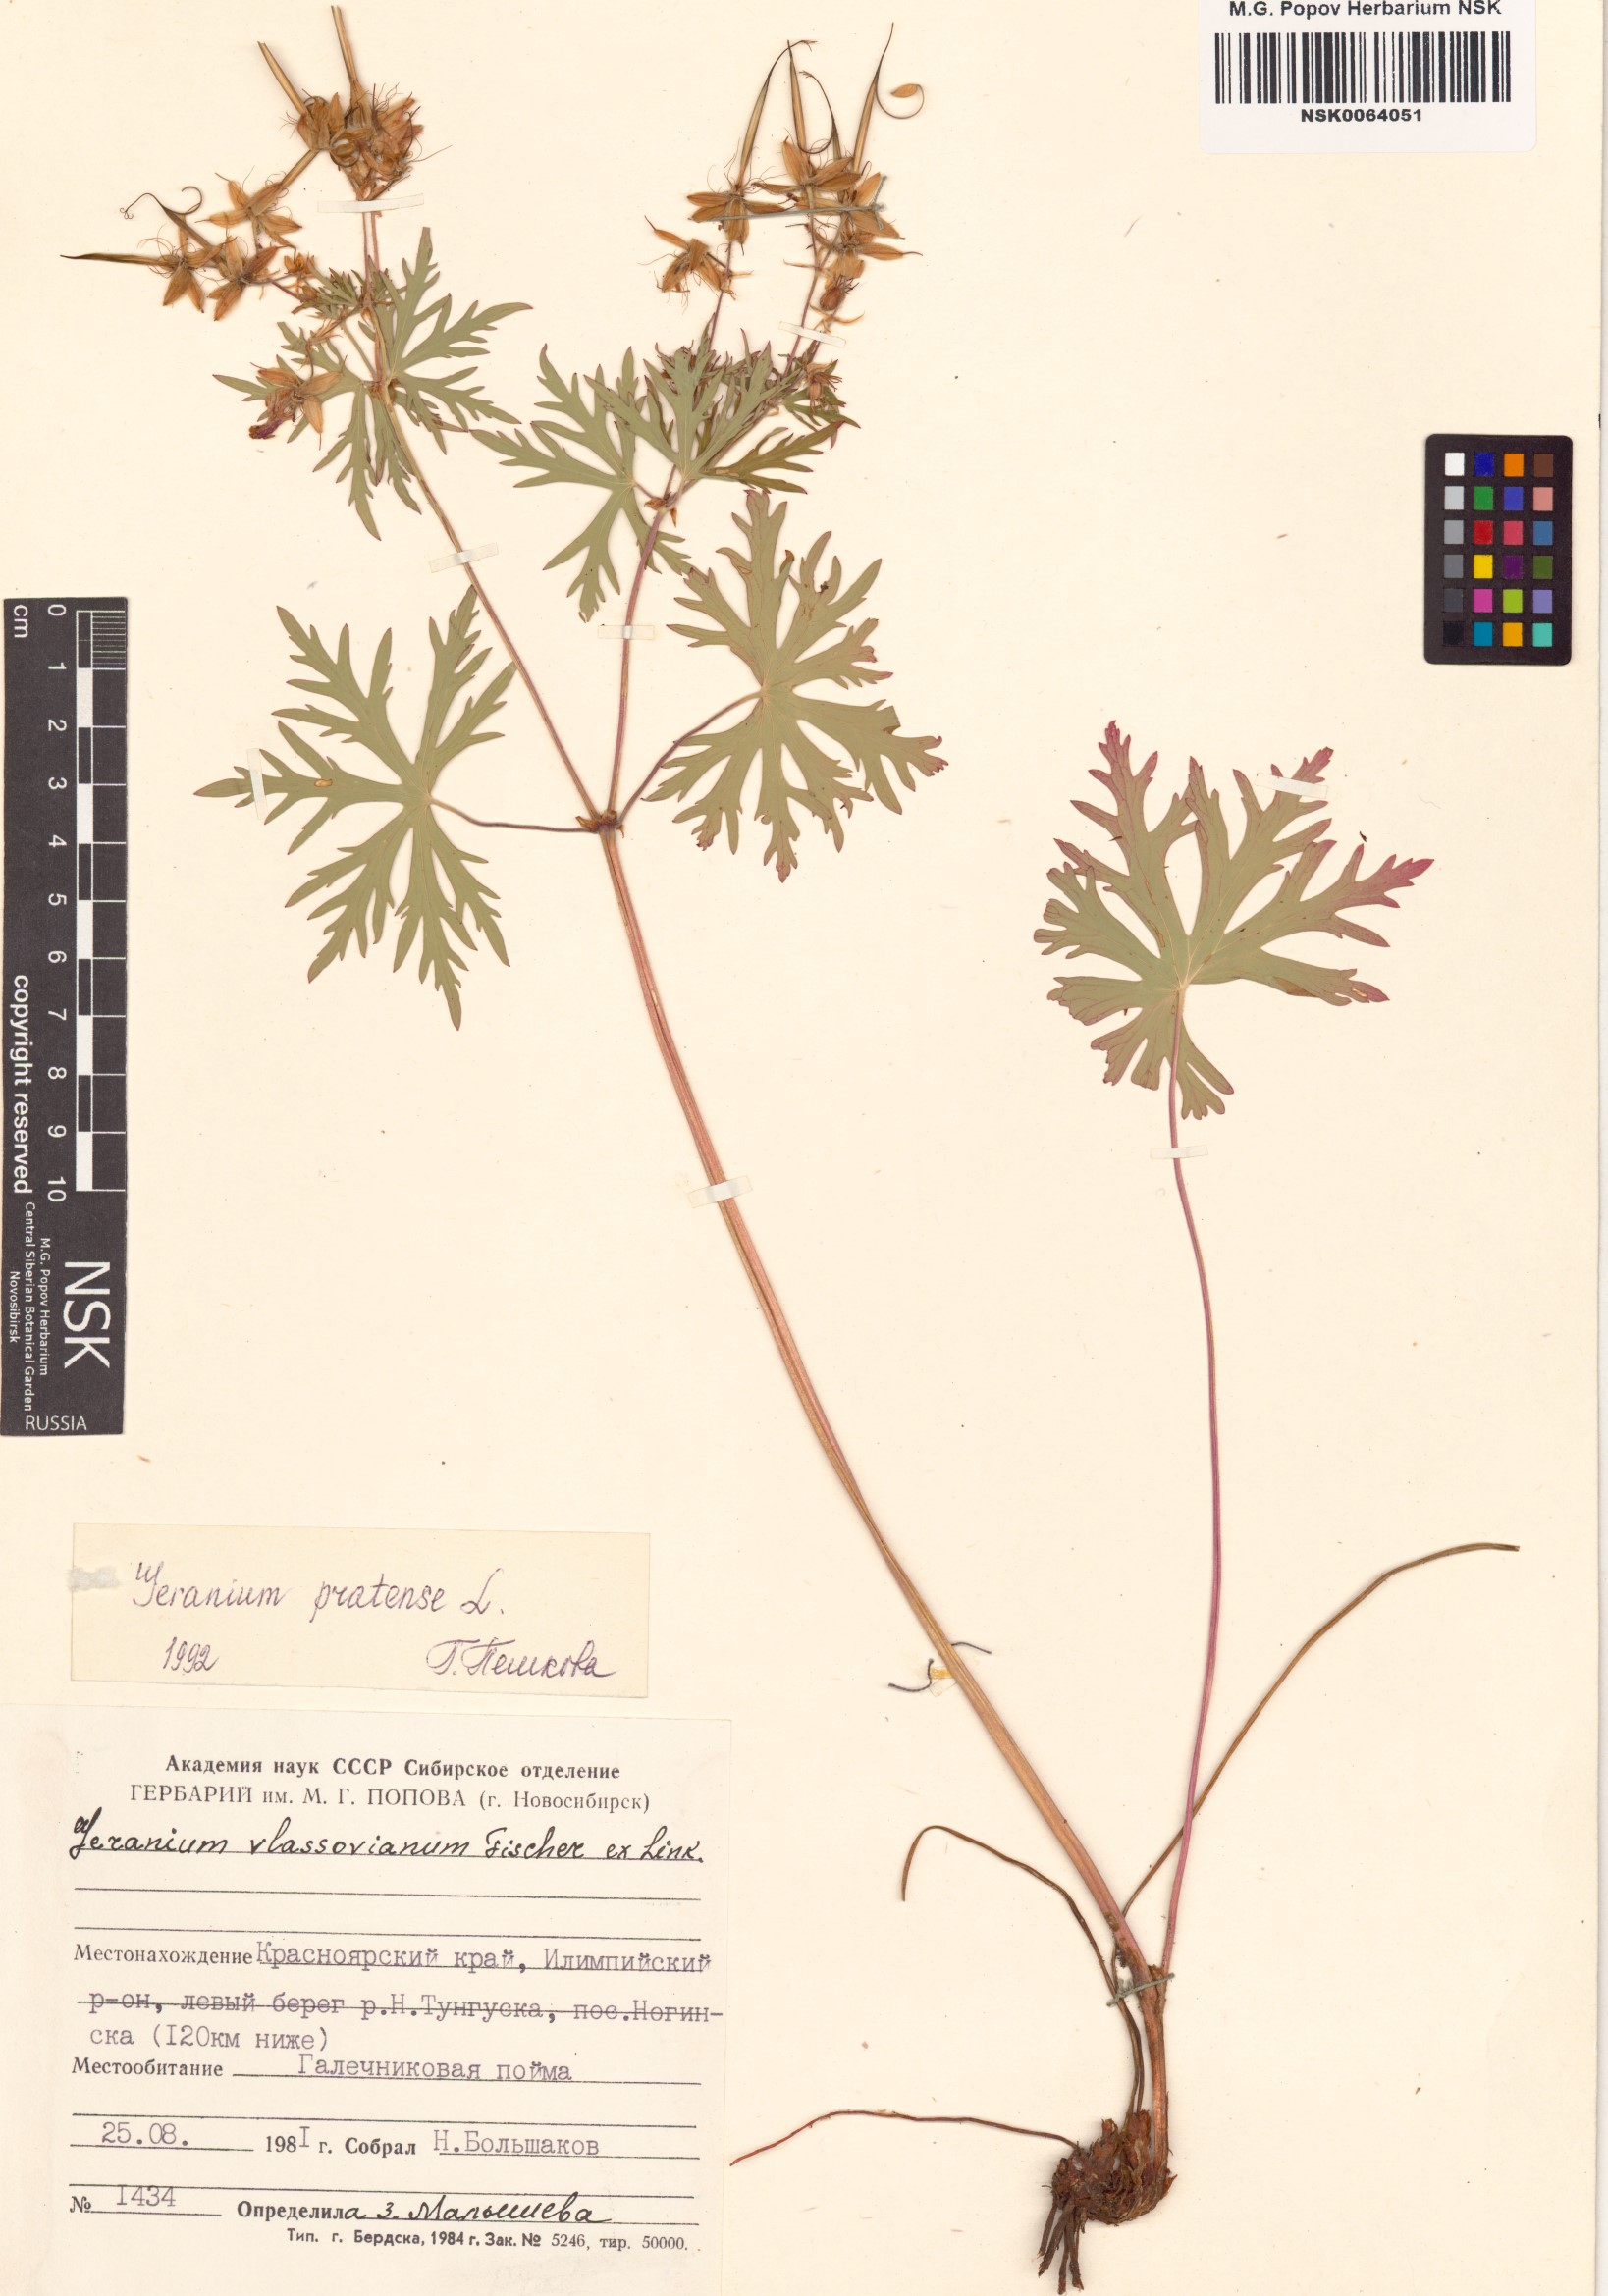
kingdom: Plantae
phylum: Tracheophyta
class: Magnoliopsida
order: Geraniales
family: Geraniaceae
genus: Geranium
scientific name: Geranium pratense
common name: Meadow crane's-bill
